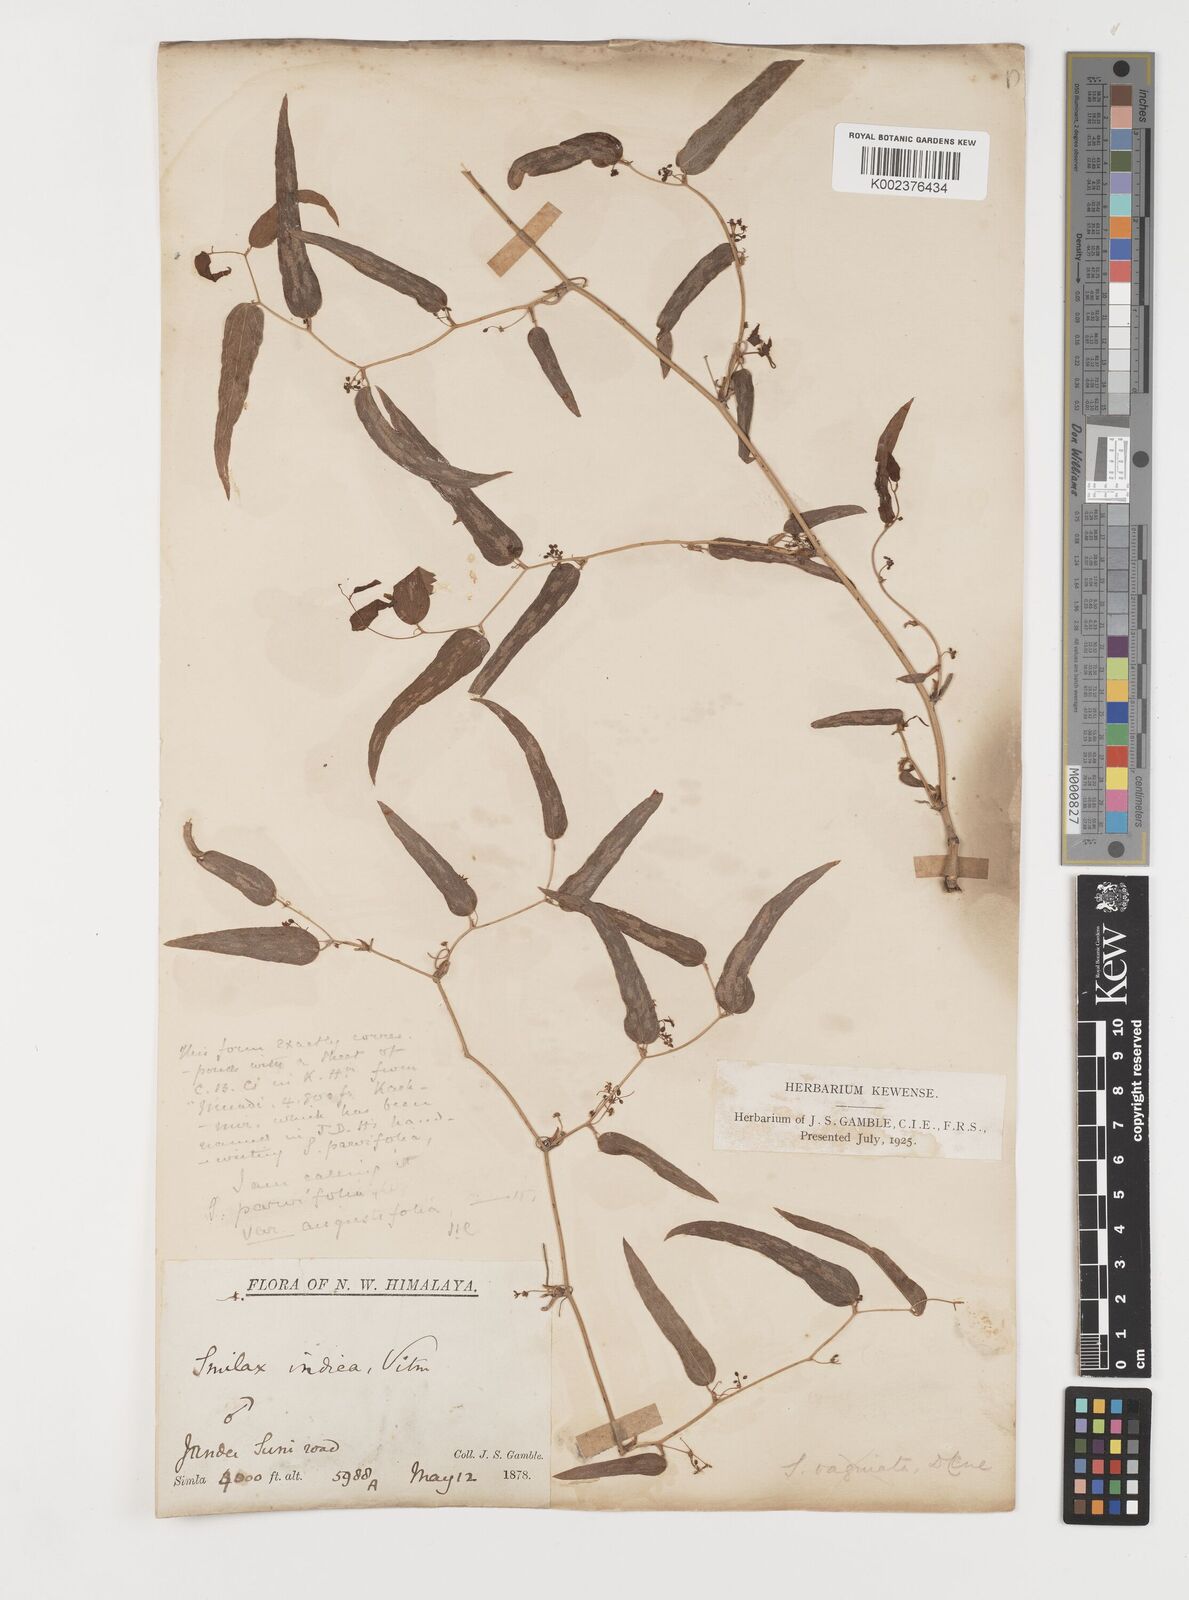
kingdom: Plantae
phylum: Tracheophyta
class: Liliopsida
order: Liliales
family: Smilacaceae
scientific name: Smilacaceae
